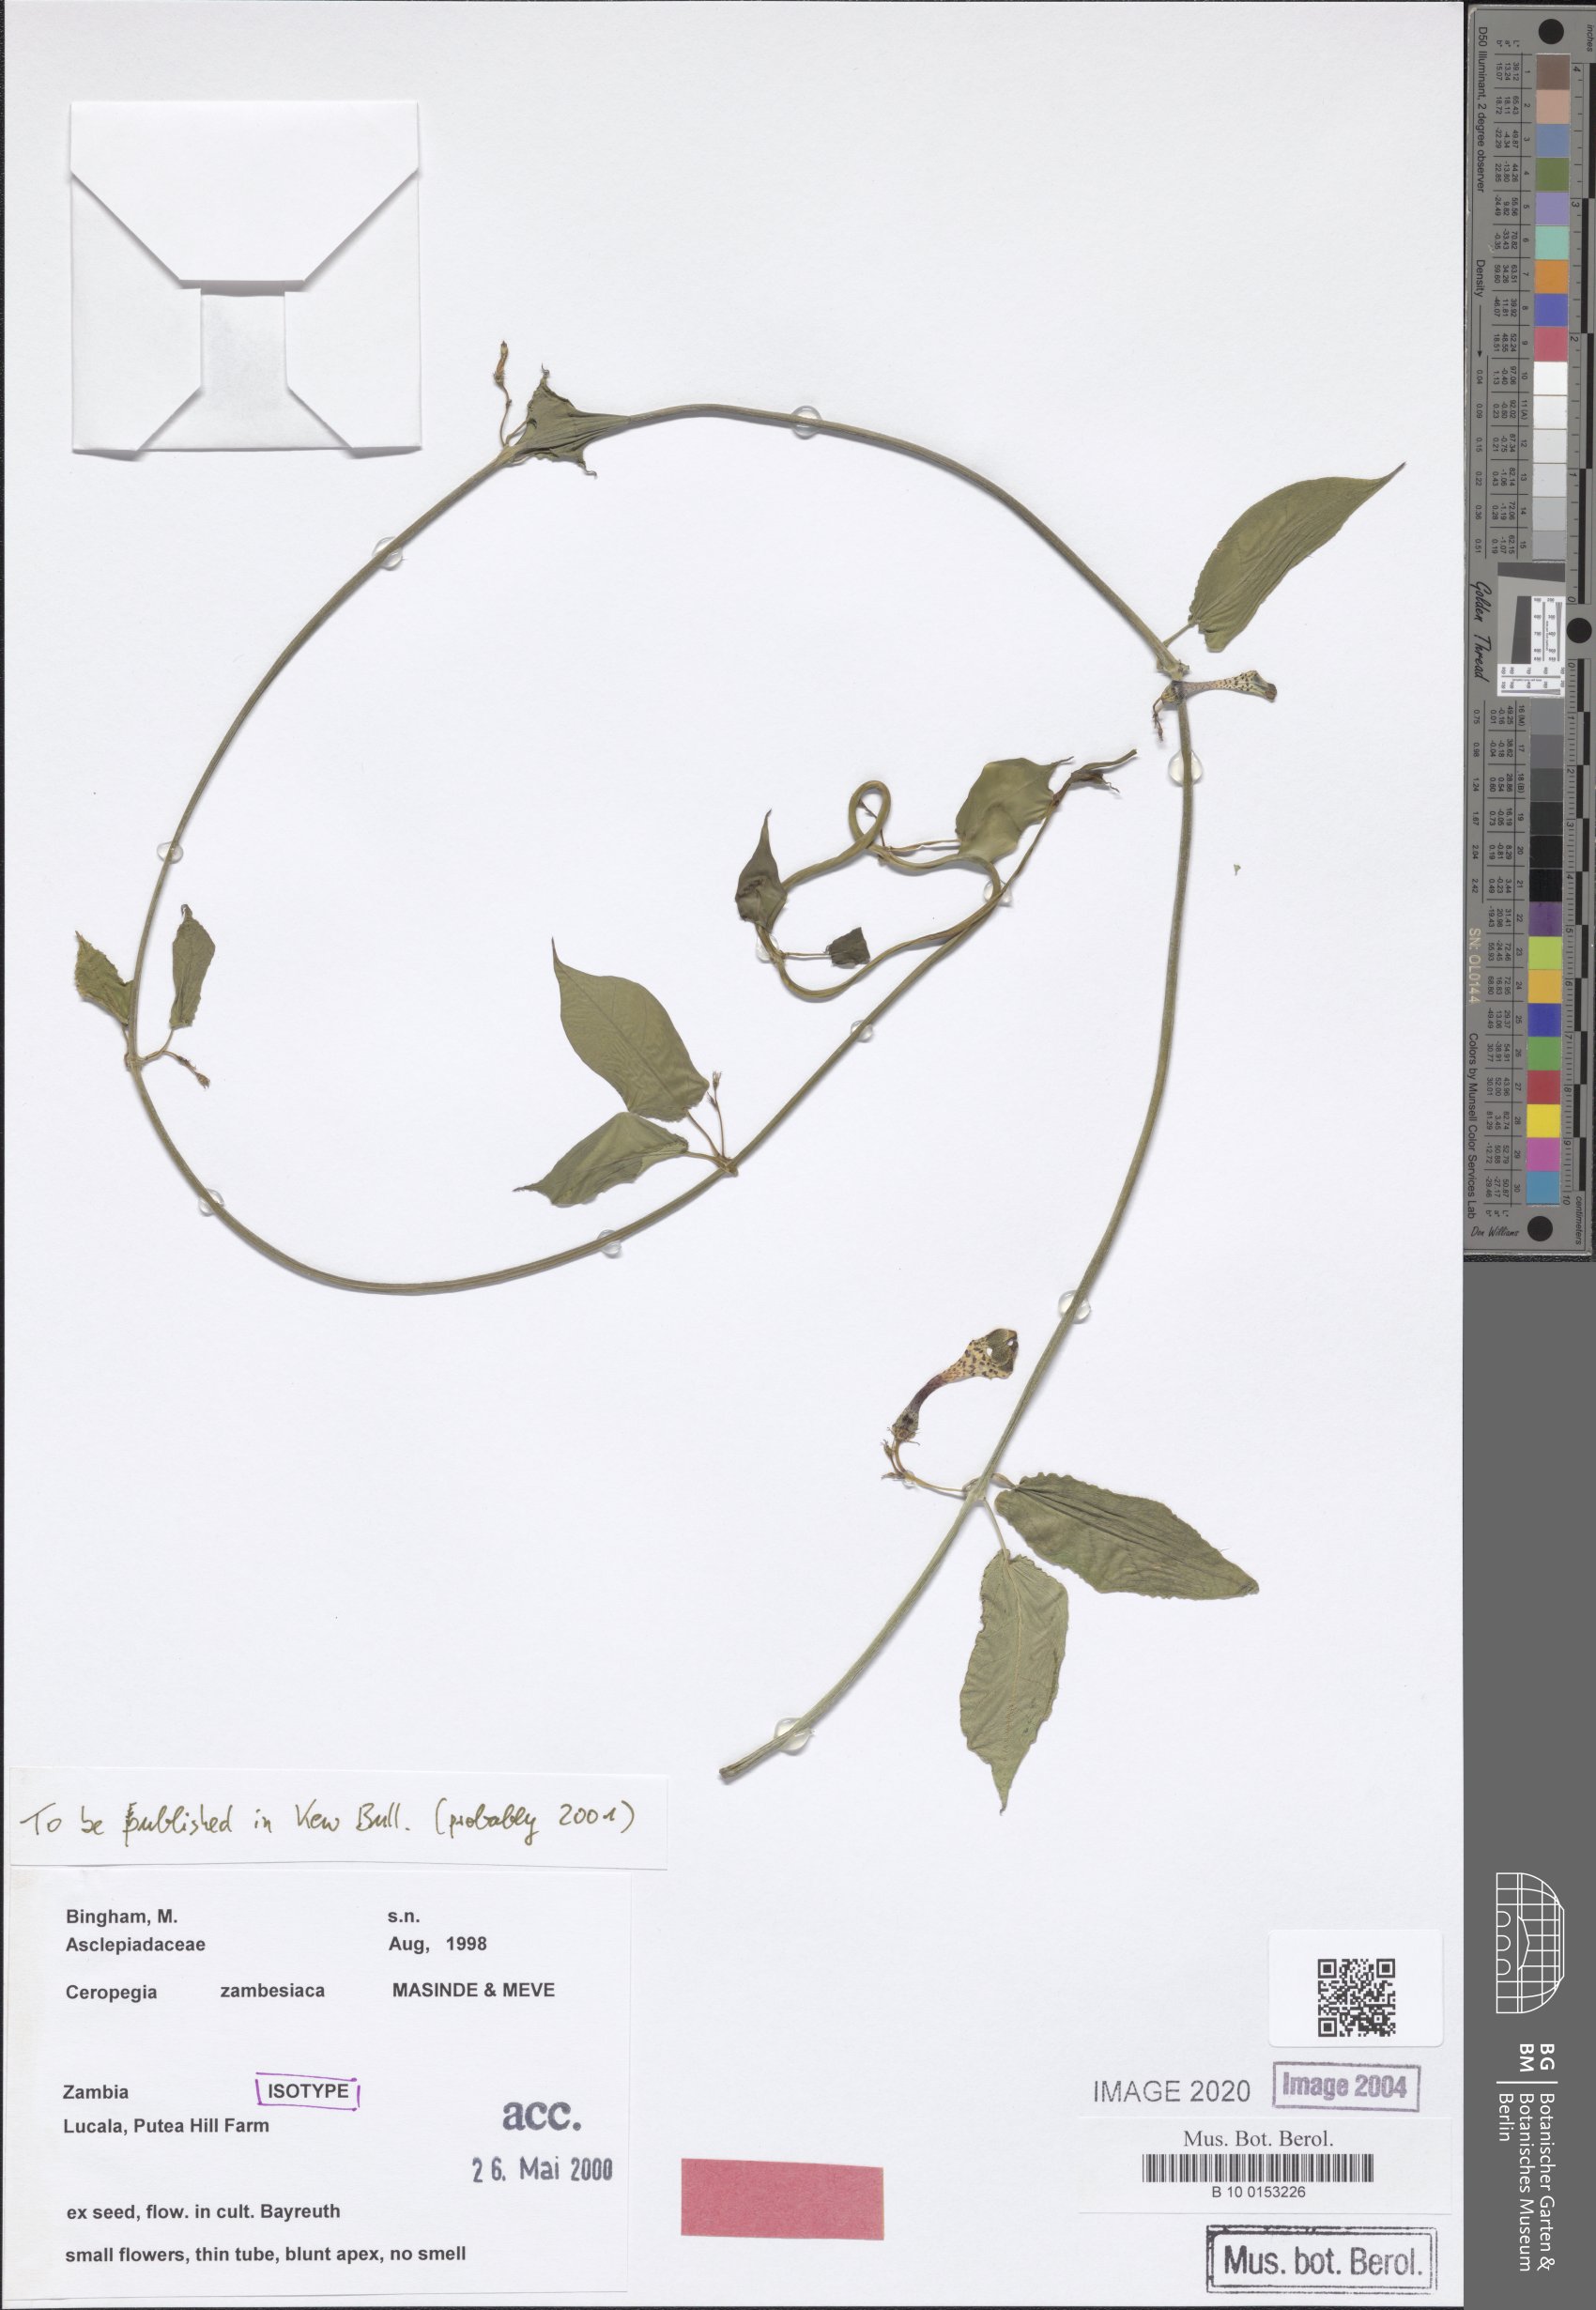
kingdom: Plantae
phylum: Tracheophyta
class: Magnoliopsida
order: Gentianales
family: Apocynaceae
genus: Ceropegia
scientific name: Ceropegia zambesiaca
